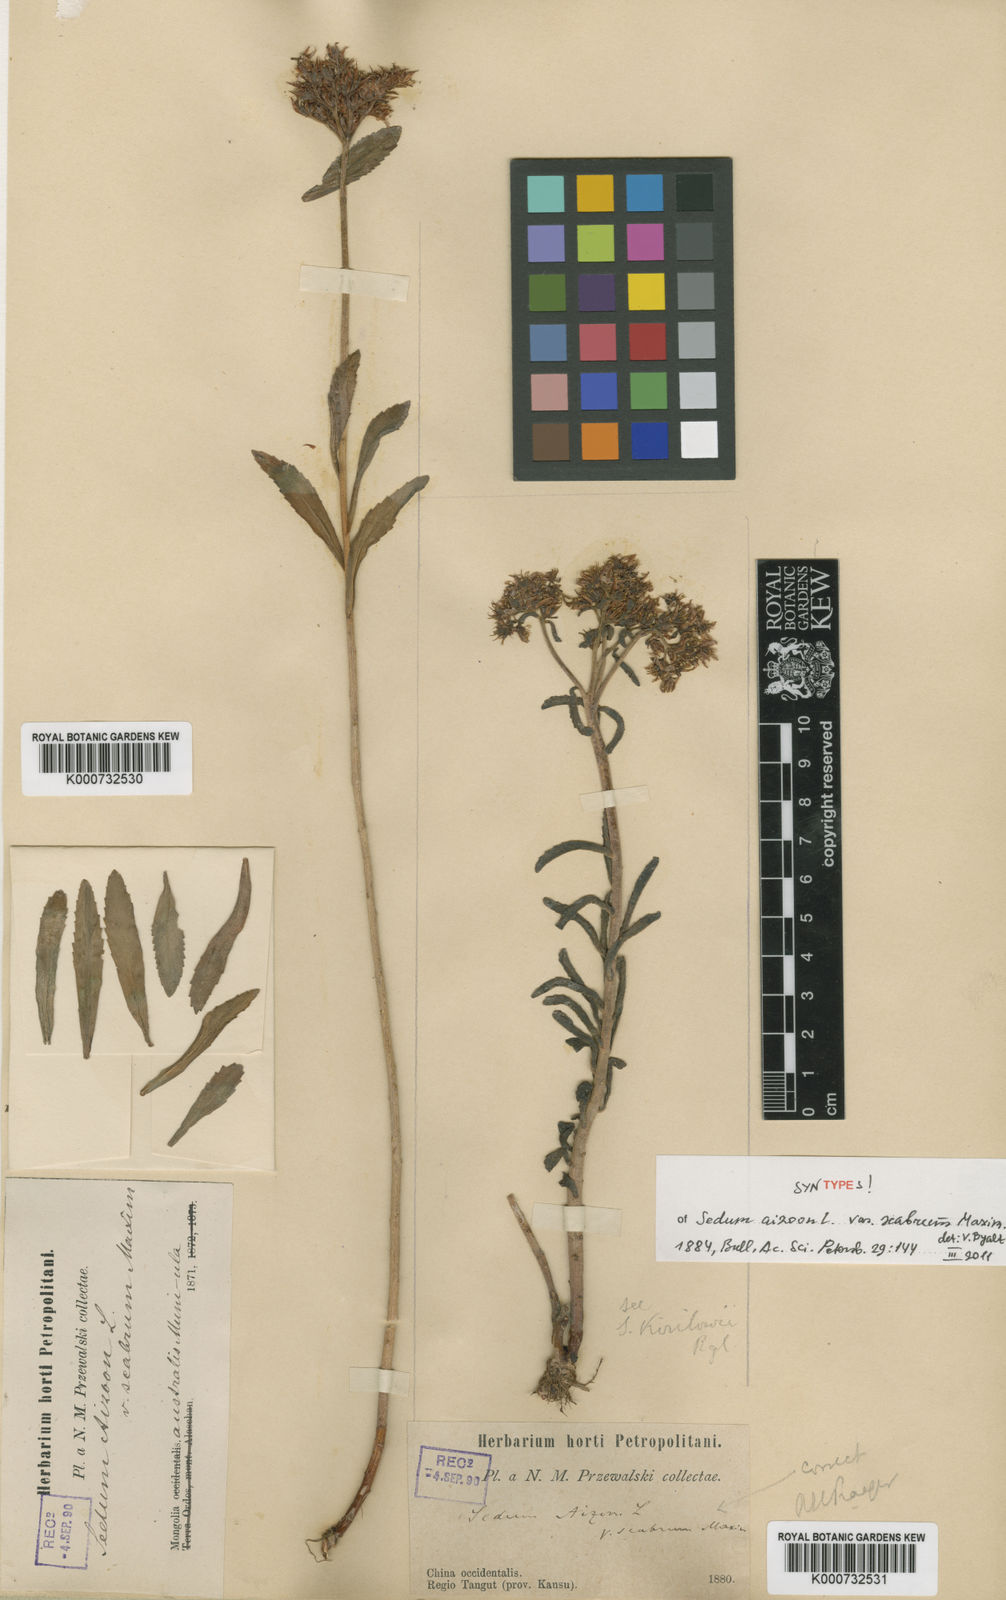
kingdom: Plantae
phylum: Tracheophyta
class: Magnoliopsida
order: Saxifragales
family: Crassulaceae
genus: Phedimus
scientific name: Phedimus aizoon
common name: Orpin aizoon
